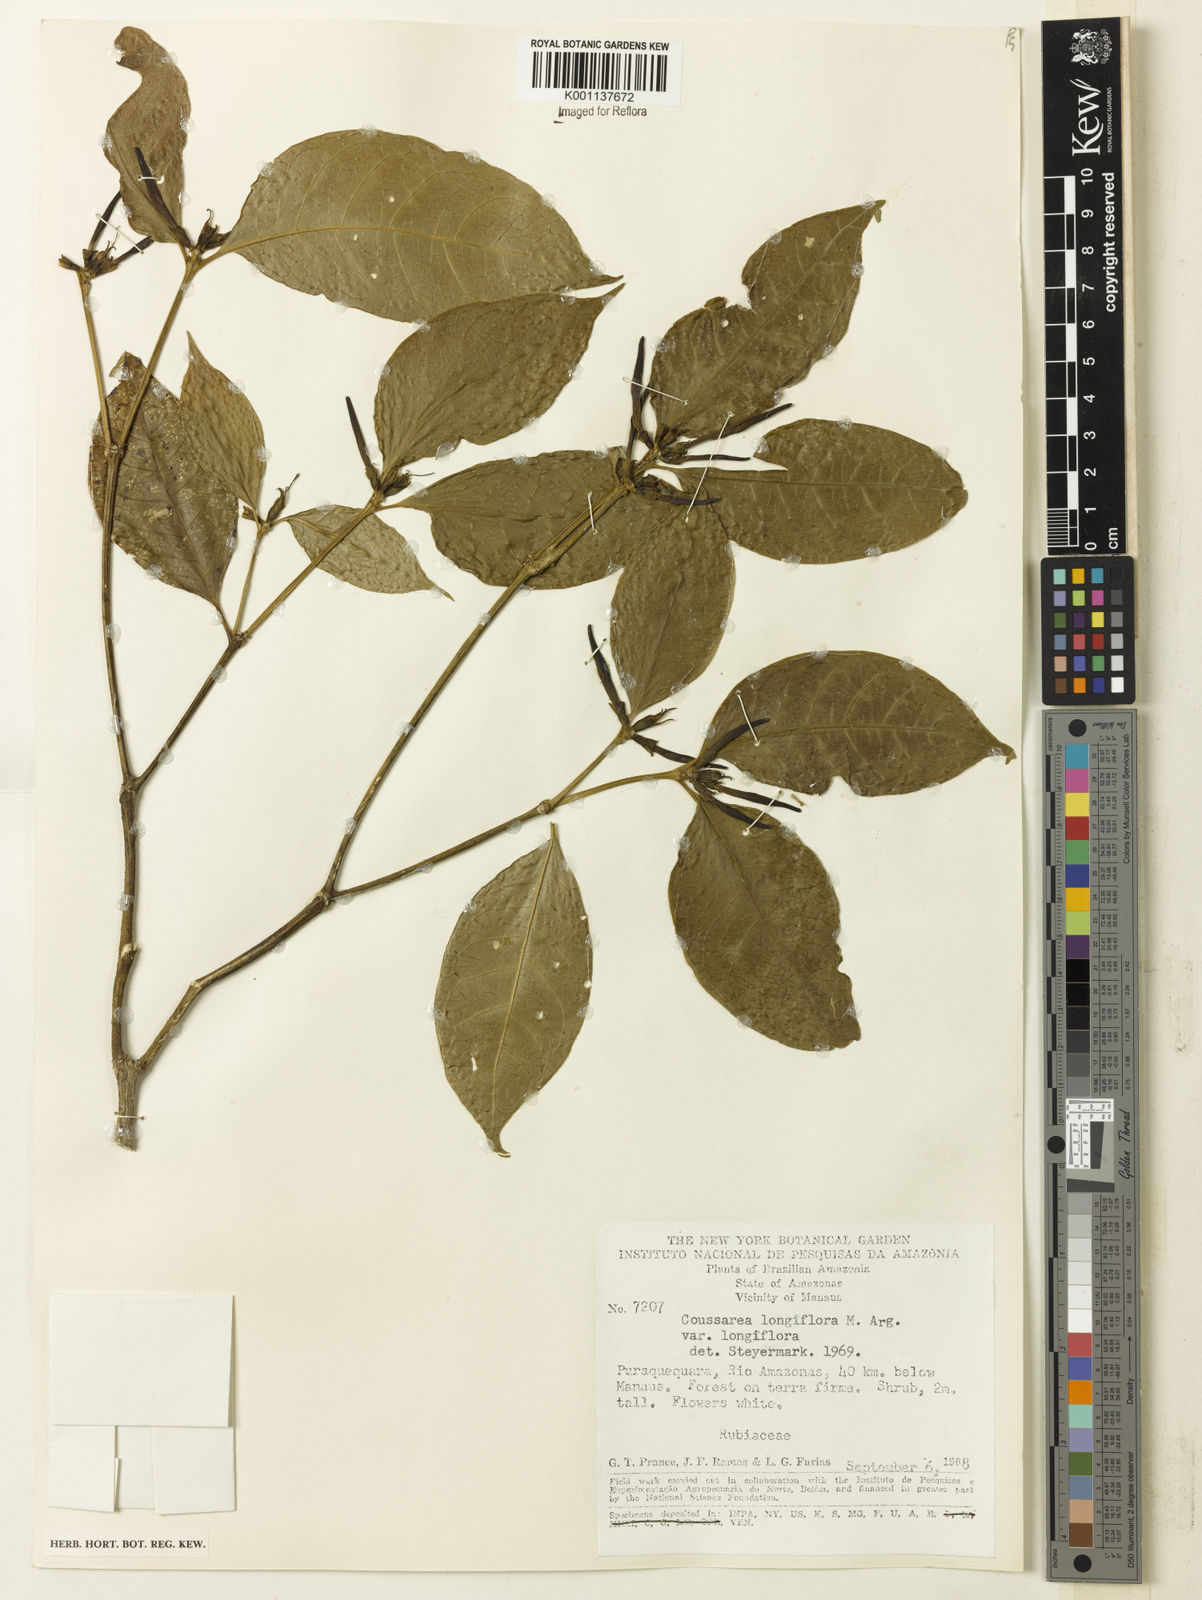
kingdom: Plantae
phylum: Tracheophyta
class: Magnoliopsida
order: Gentianales
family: Rubiaceae
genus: Coussarea
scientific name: Coussarea
